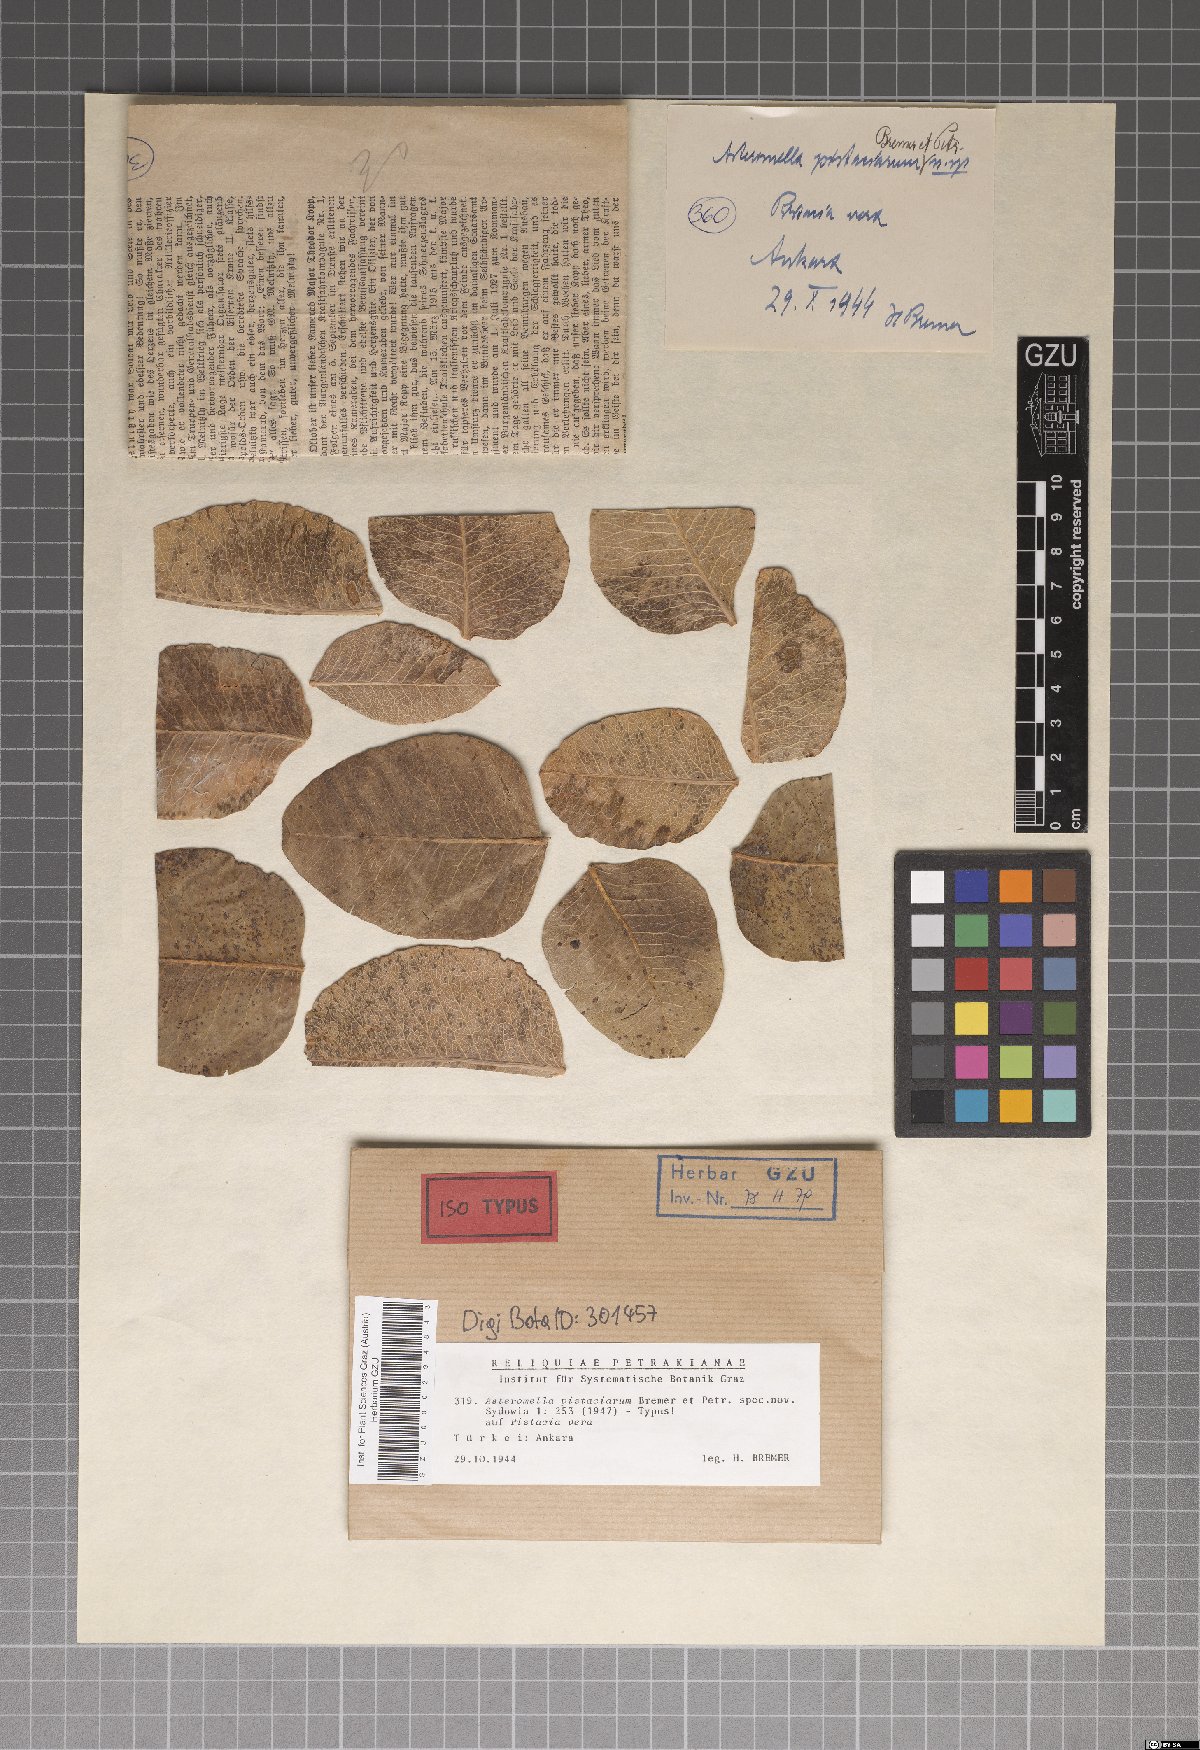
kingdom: Fungi
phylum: Ascomycota
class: Dothideomycetes
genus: Asteromella
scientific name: Asteromella pistaciarum
